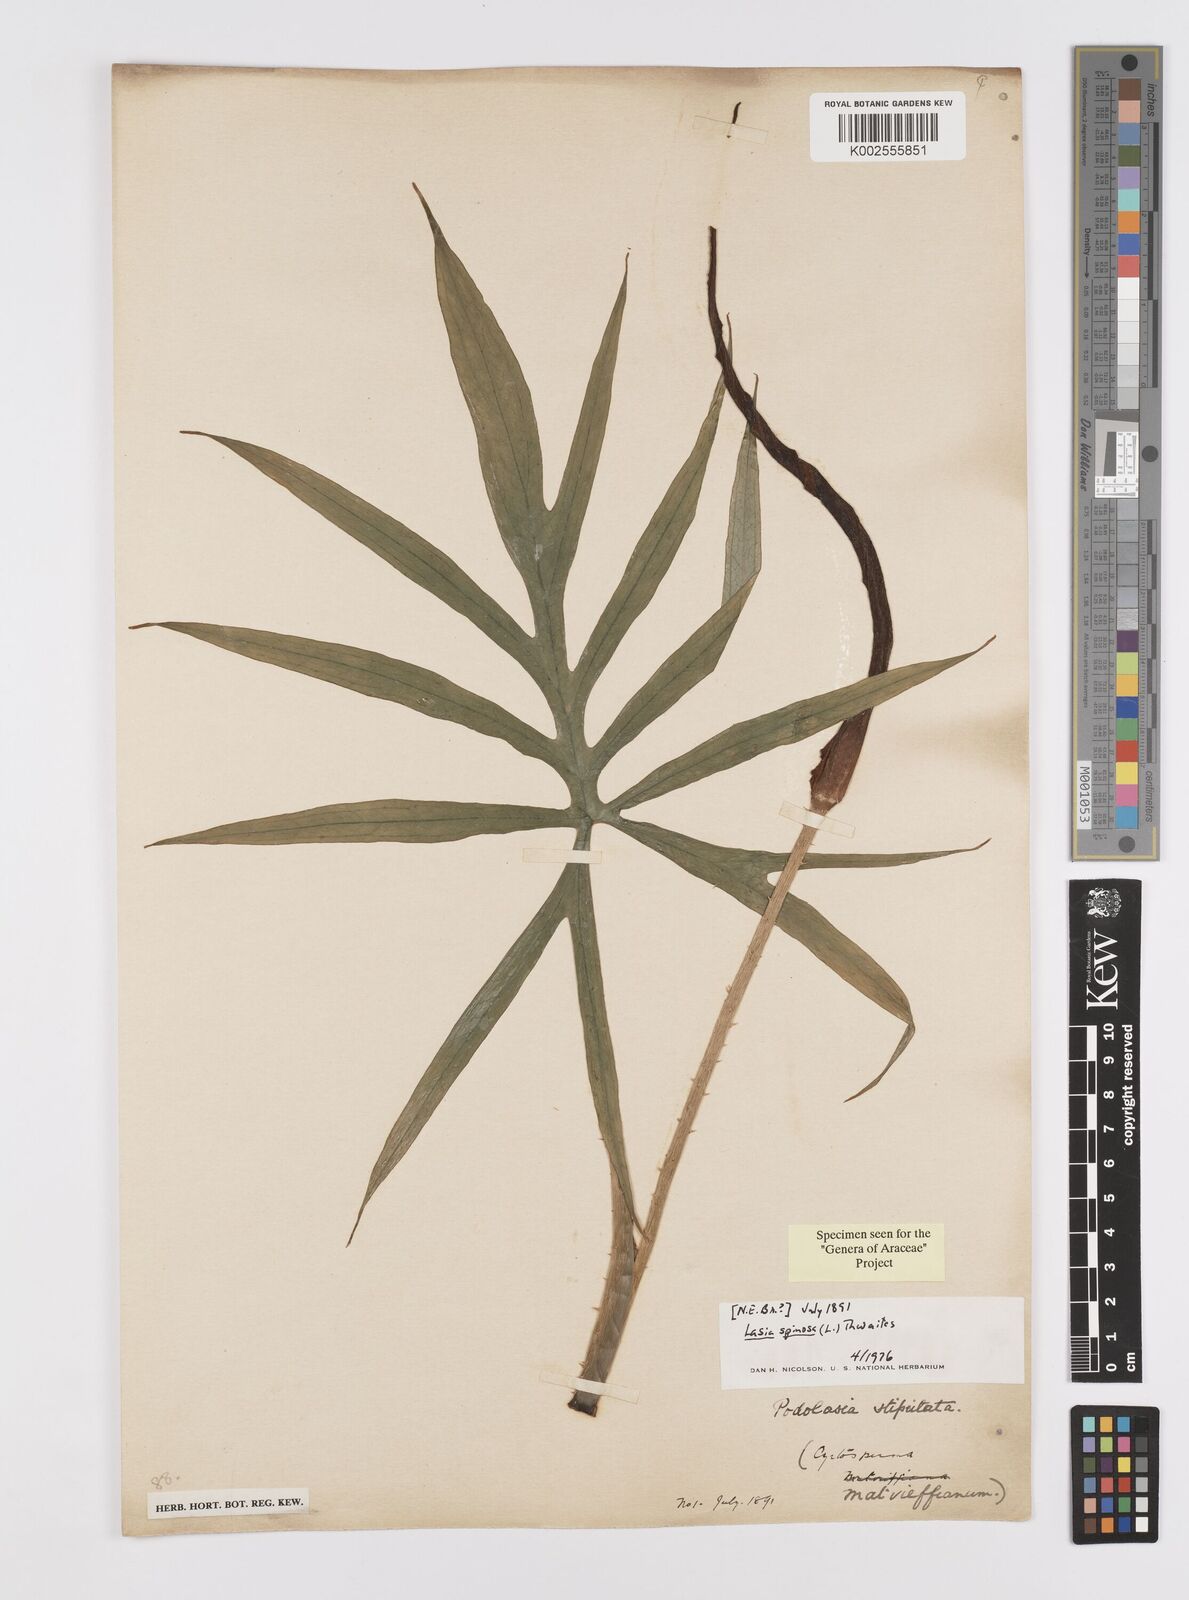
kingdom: Plantae
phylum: Tracheophyta
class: Liliopsida
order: Alismatales
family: Araceae
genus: Lasia
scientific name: Lasia spinosa
